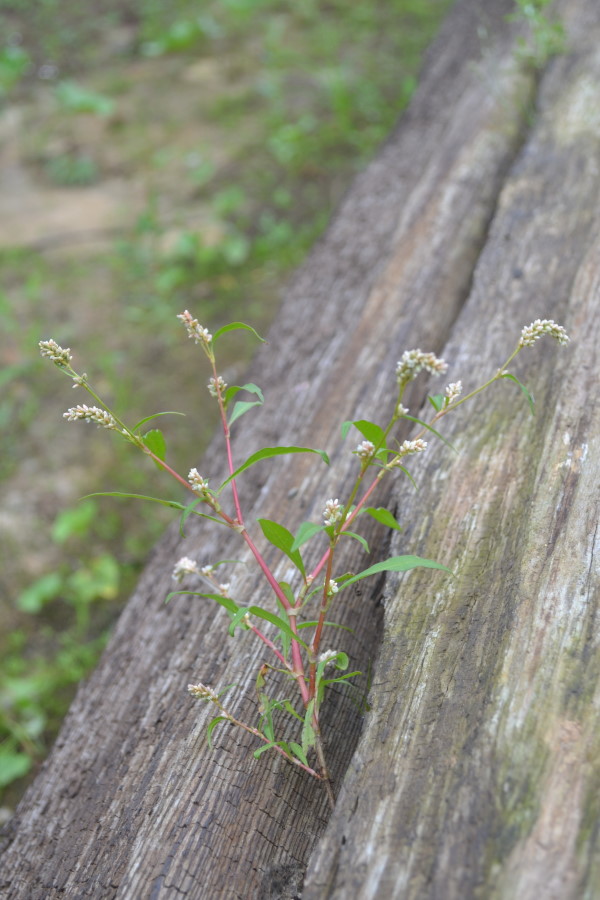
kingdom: Plantae
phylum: Tracheophyta
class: Magnoliopsida
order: Caryophyllales
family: Polygonaceae
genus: Persicaria
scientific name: Persicaria lapathifolia
